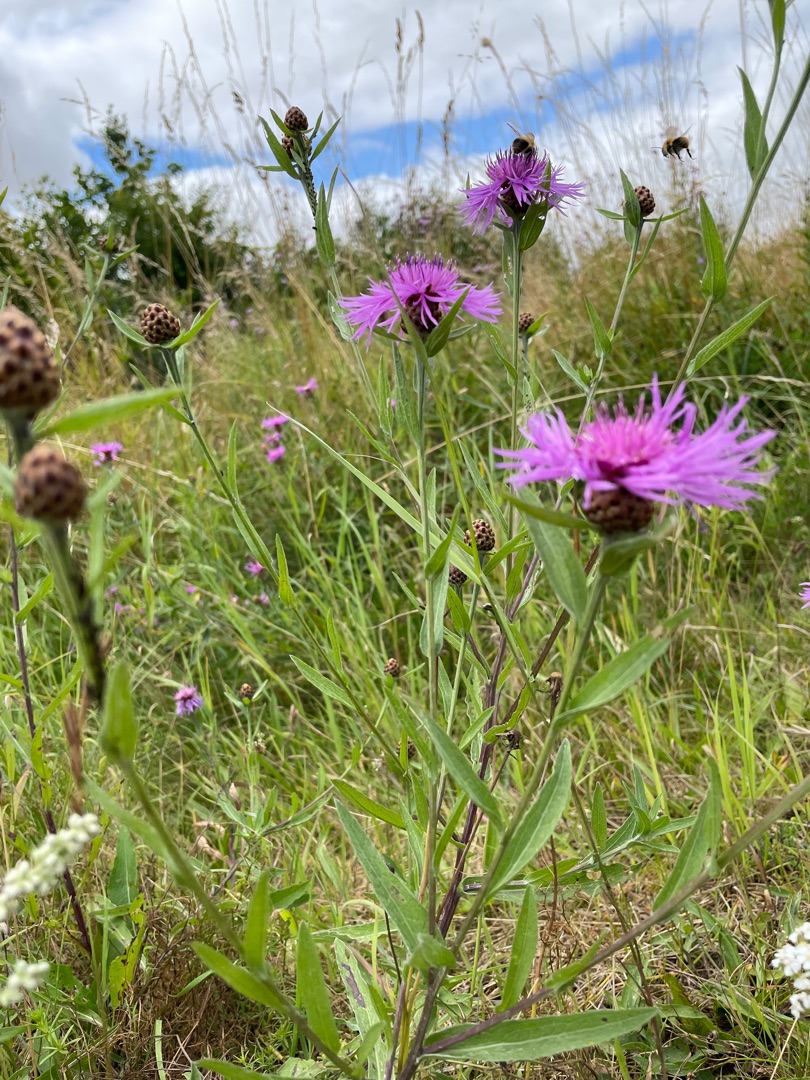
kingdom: Plantae
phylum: Tracheophyta
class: Magnoliopsida
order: Asterales
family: Asteraceae
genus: Centaurea
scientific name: Centaurea jacea
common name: Almindelig knopurt
